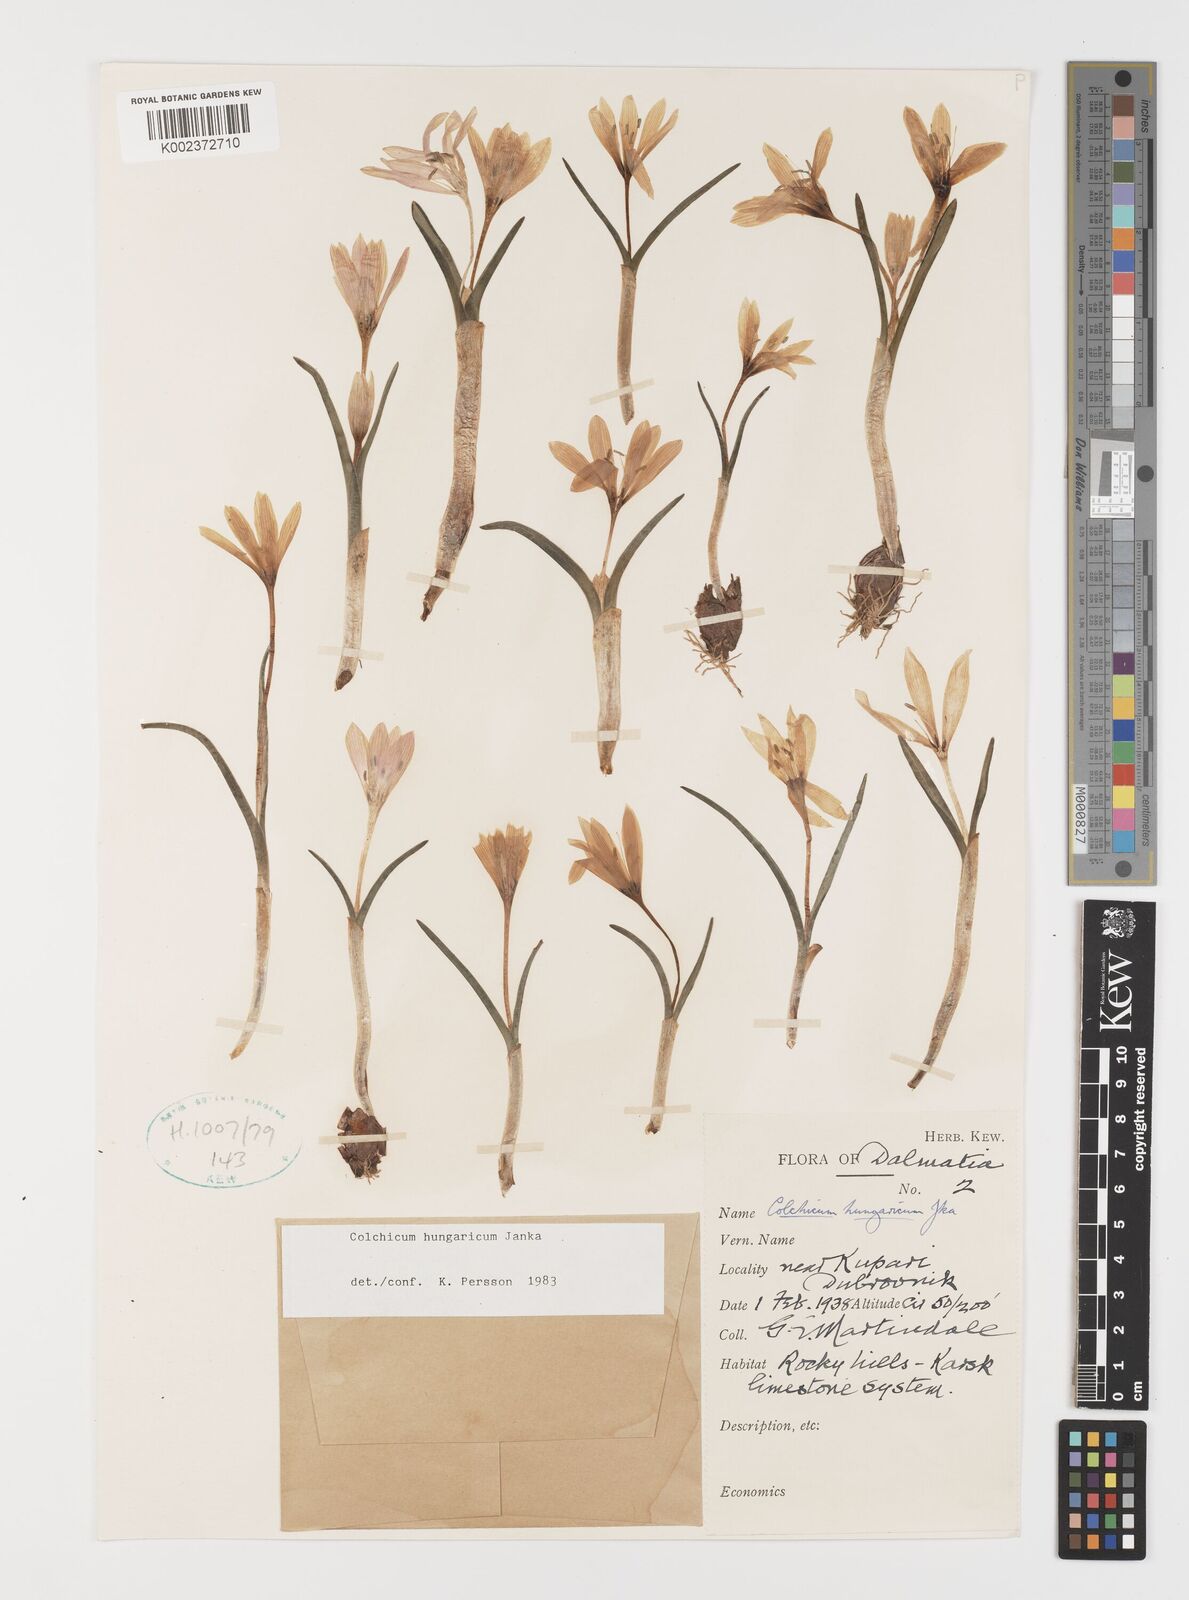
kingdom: Plantae
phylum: Tracheophyta
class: Liliopsida
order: Liliales
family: Colchicaceae
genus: Colchicum
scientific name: Colchicum hungaricum
